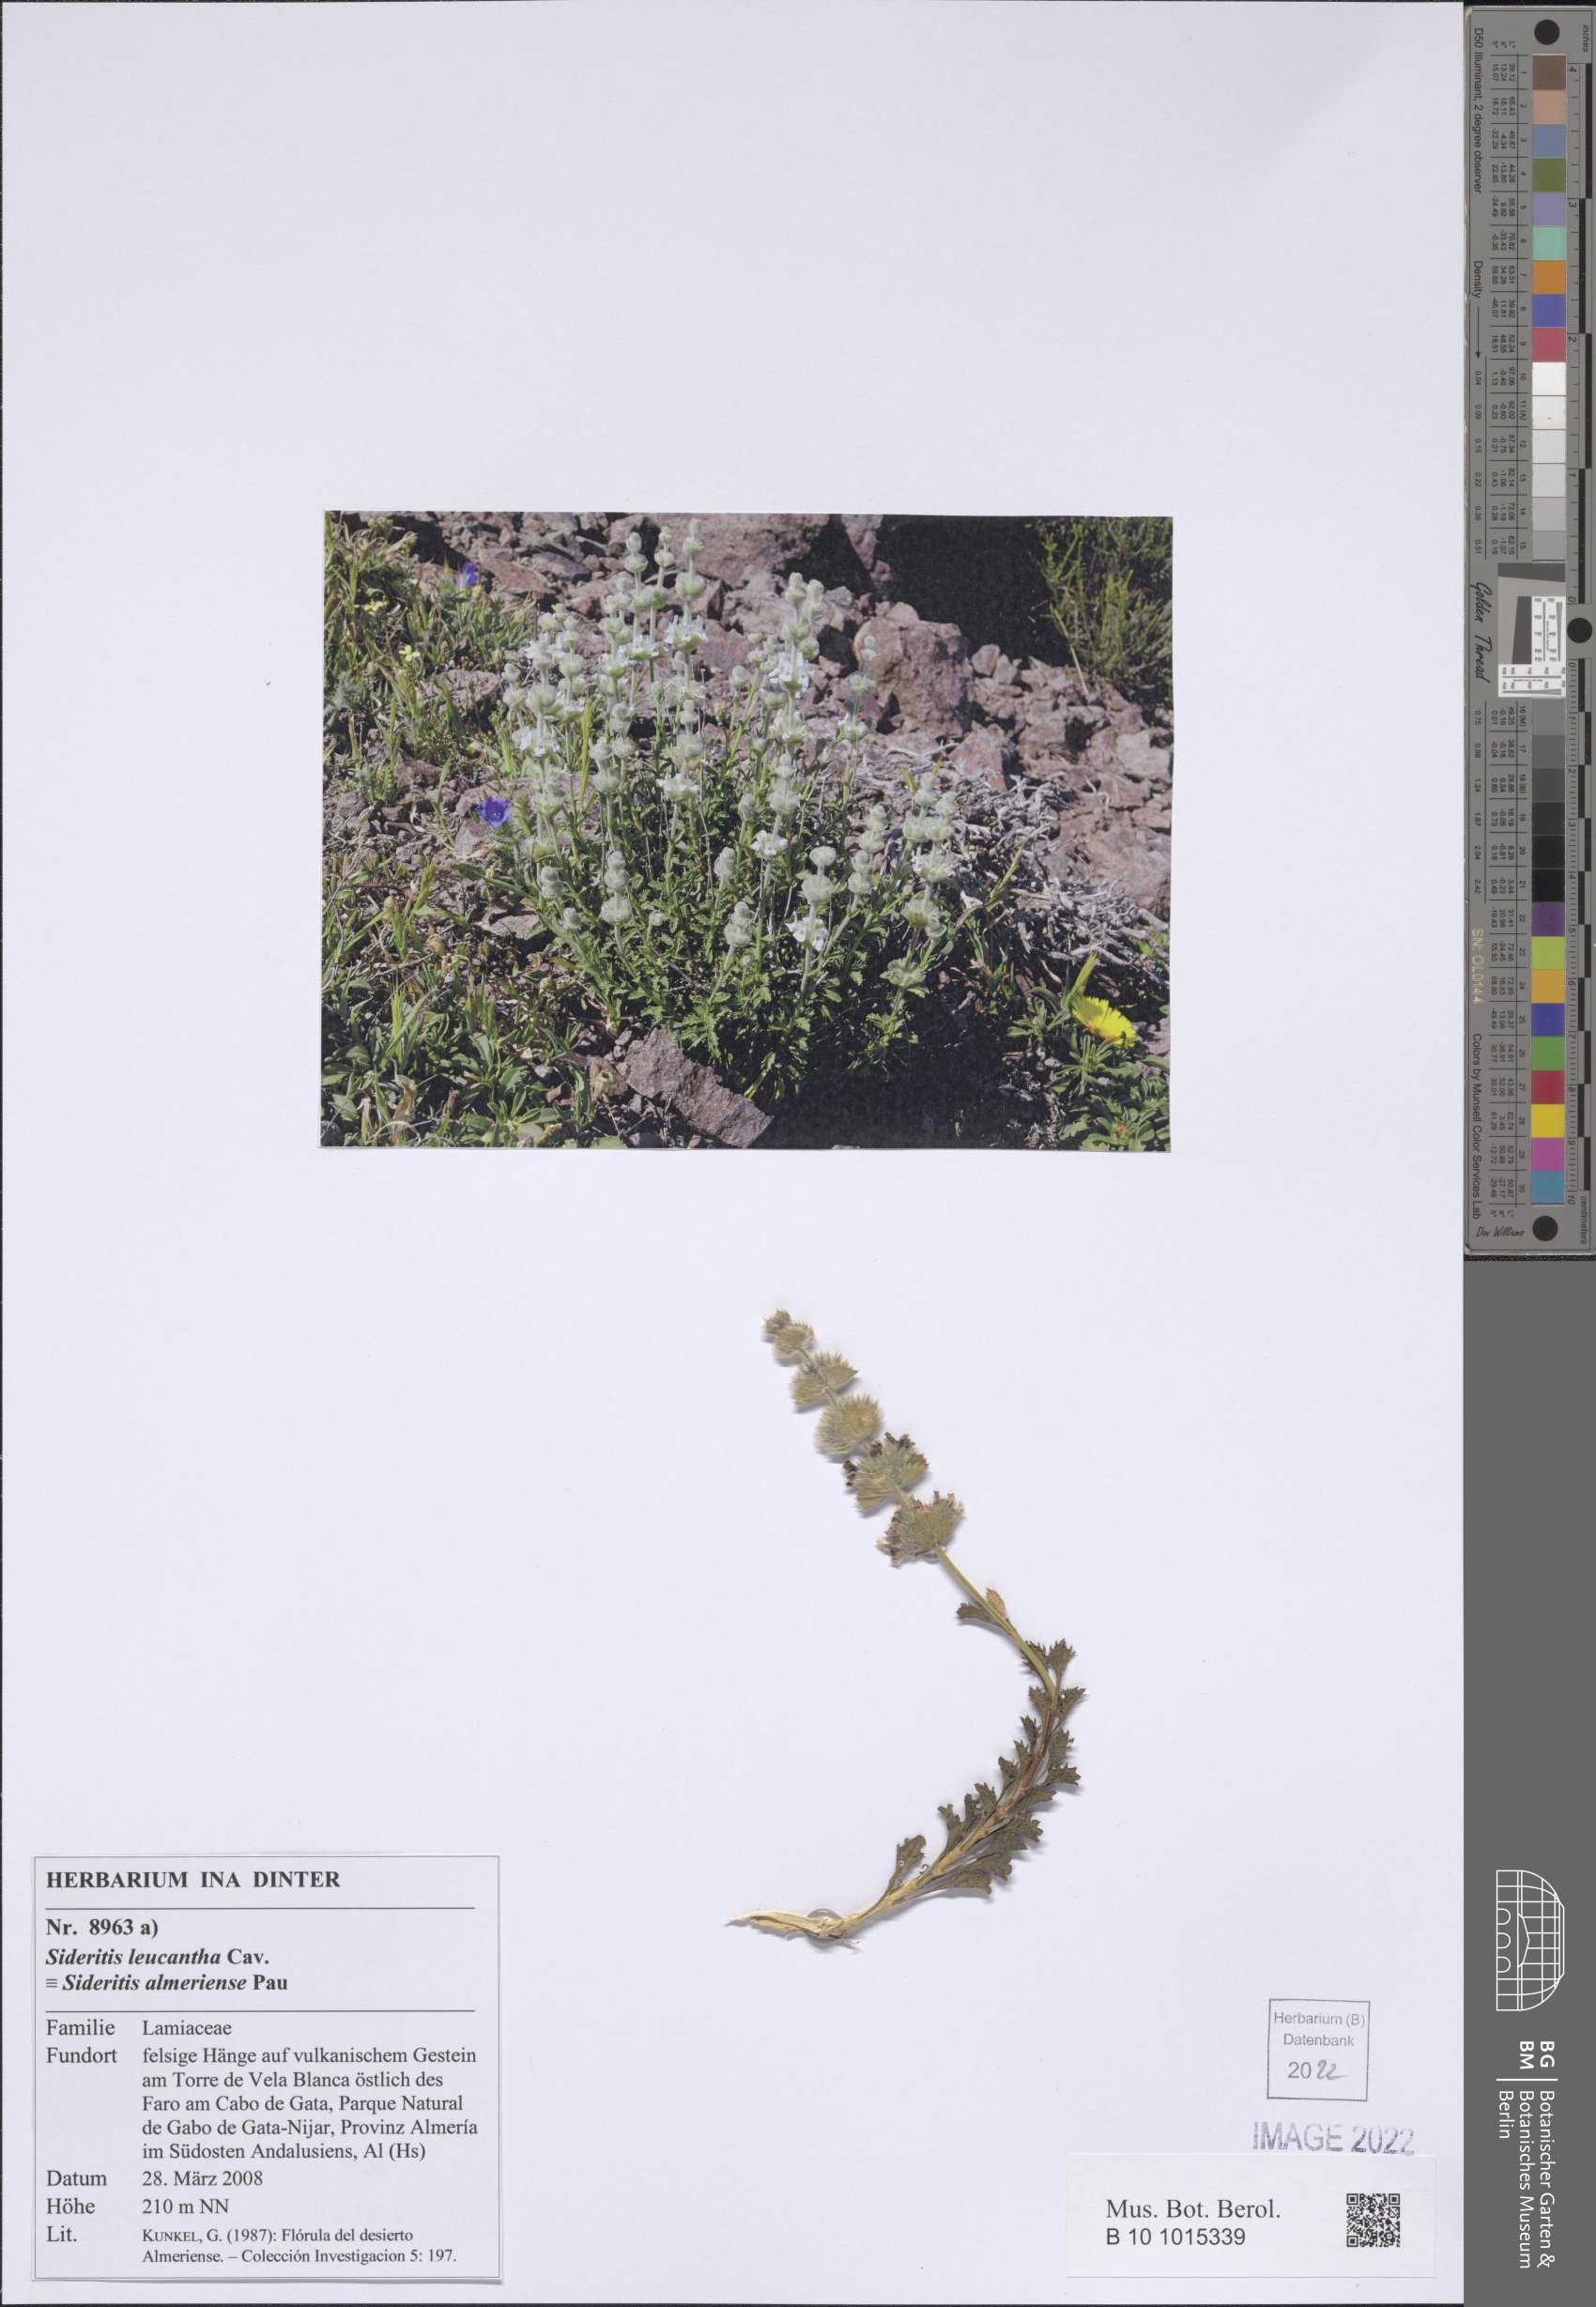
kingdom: Plantae
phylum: Tracheophyta
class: Magnoliopsida
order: Lamiales
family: Lamiaceae
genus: Sideritis
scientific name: Sideritis leucantha
